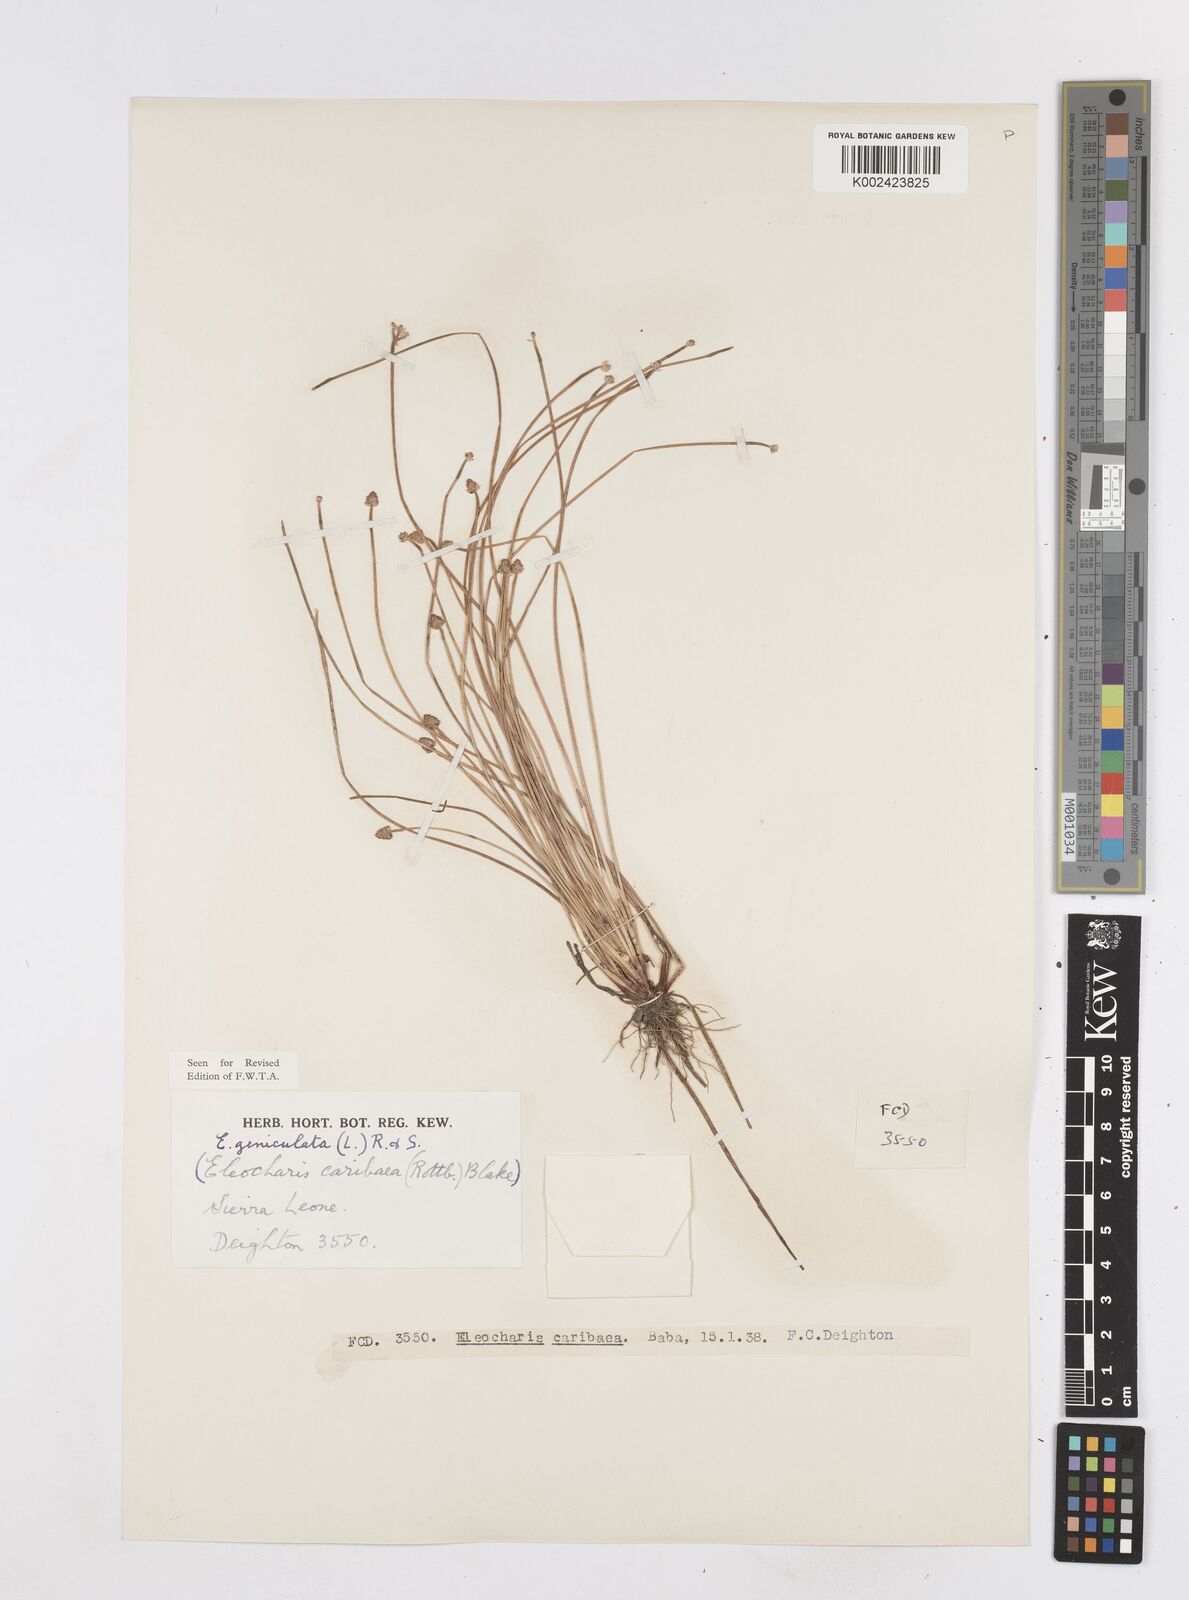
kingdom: Plantae
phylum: Tracheophyta
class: Liliopsida
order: Poales
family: Cyperaceae
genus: Eleocharis
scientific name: Eleocharis geniculata
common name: Canada spikesedge
